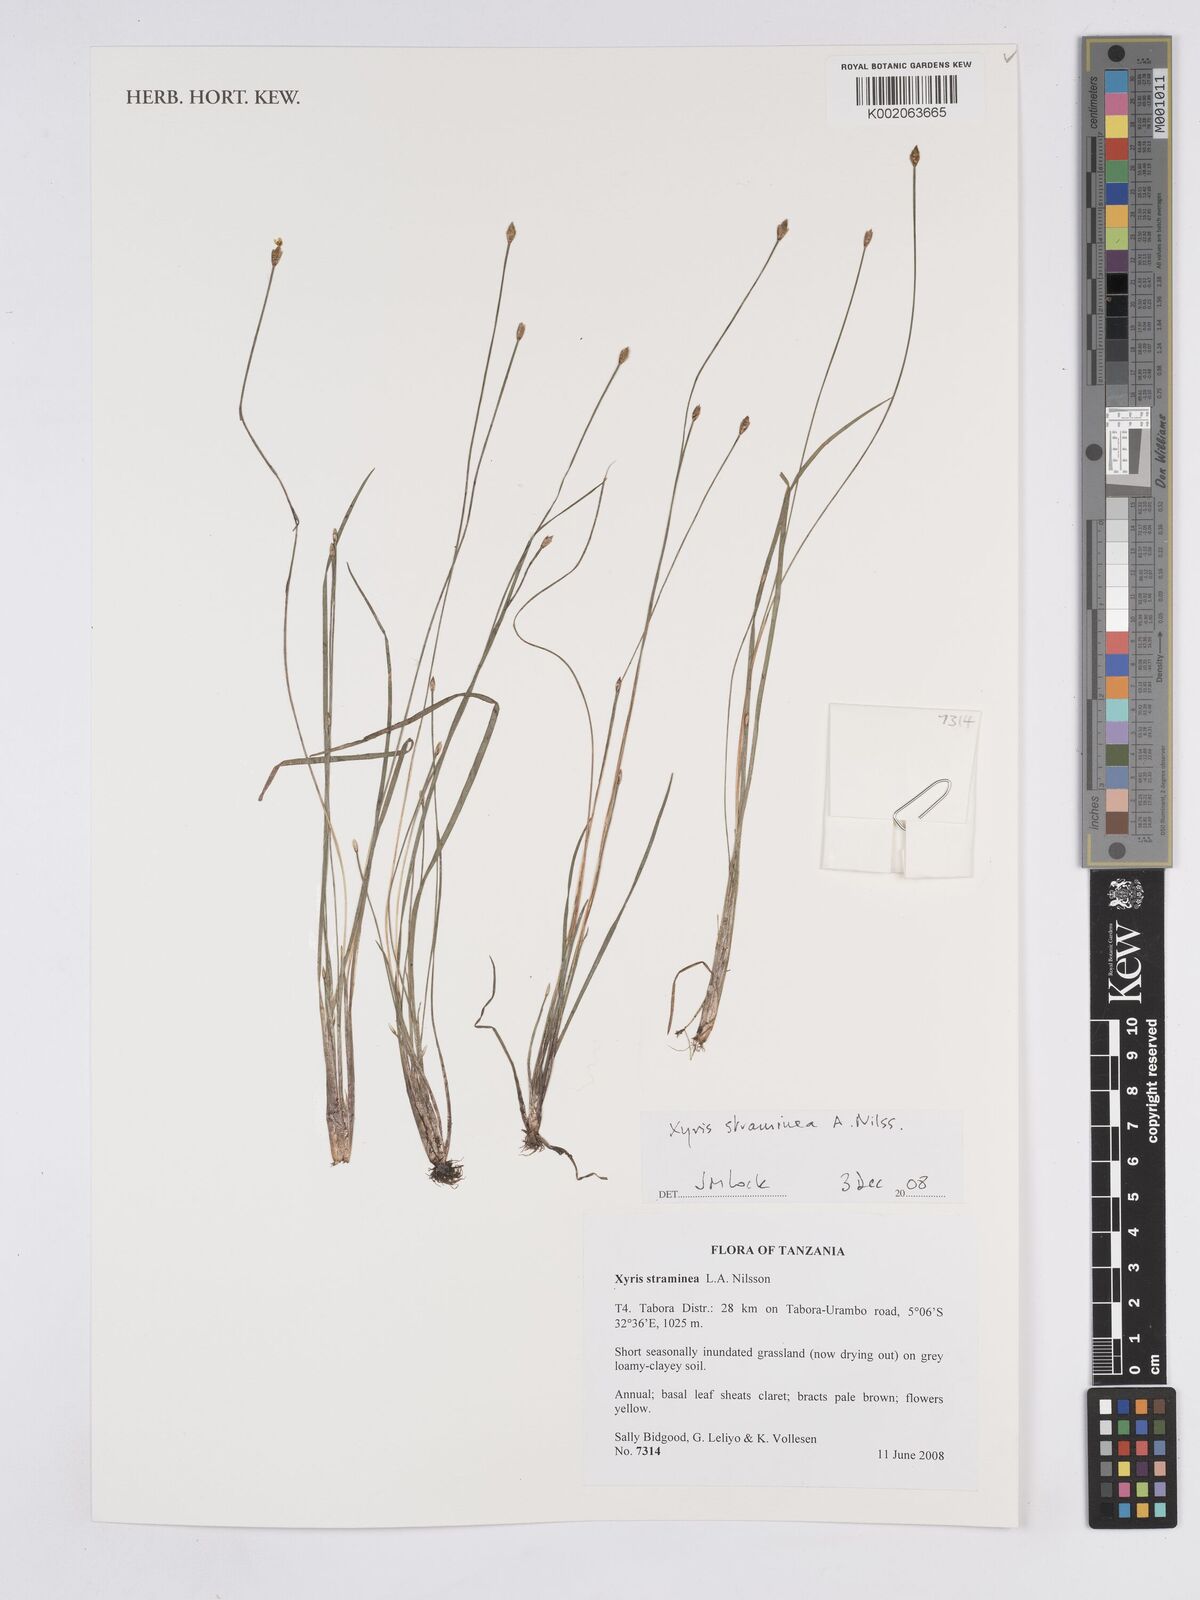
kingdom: Plantae
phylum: Tracheophyta
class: Liliopsida
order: Poales
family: Xyridaceae
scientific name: Xyridaceae
